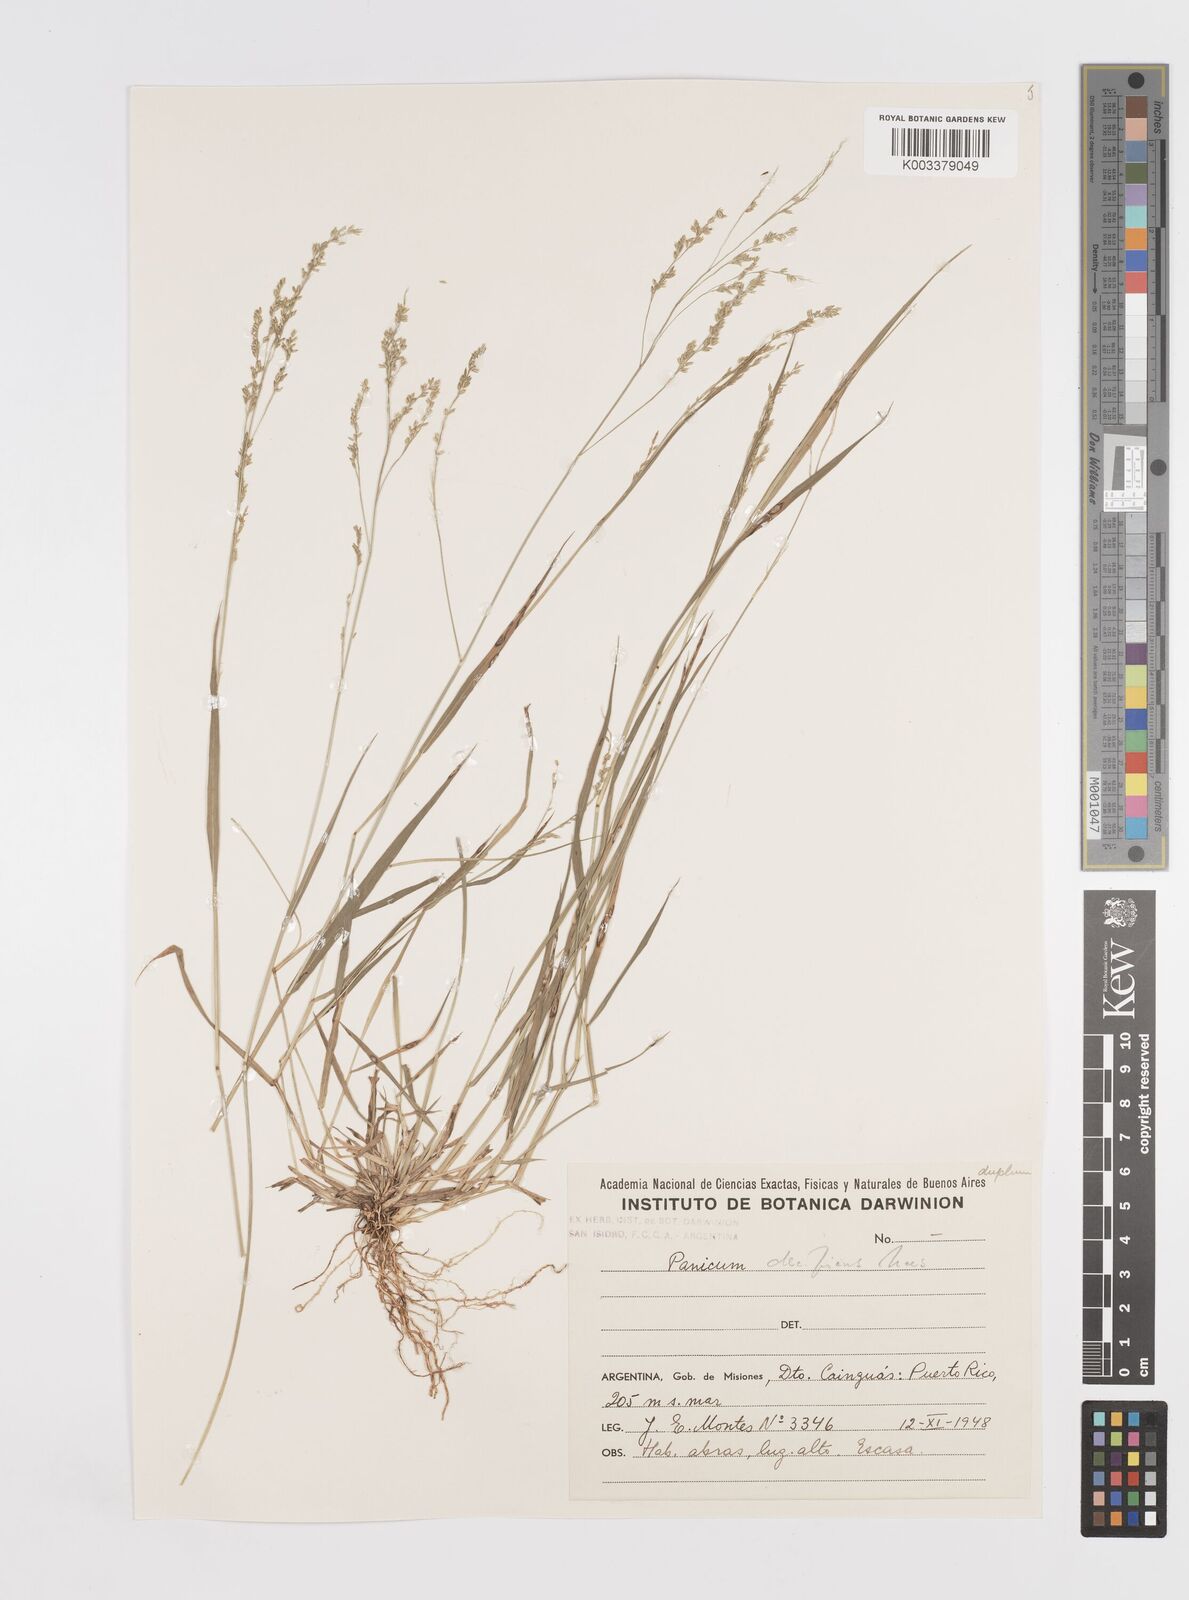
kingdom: Plantae
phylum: Tracheophyta
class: Liliopsida
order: Poales
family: Poaceae
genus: Steinchisma
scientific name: Steinchisma hians
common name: Gaping panic grass
